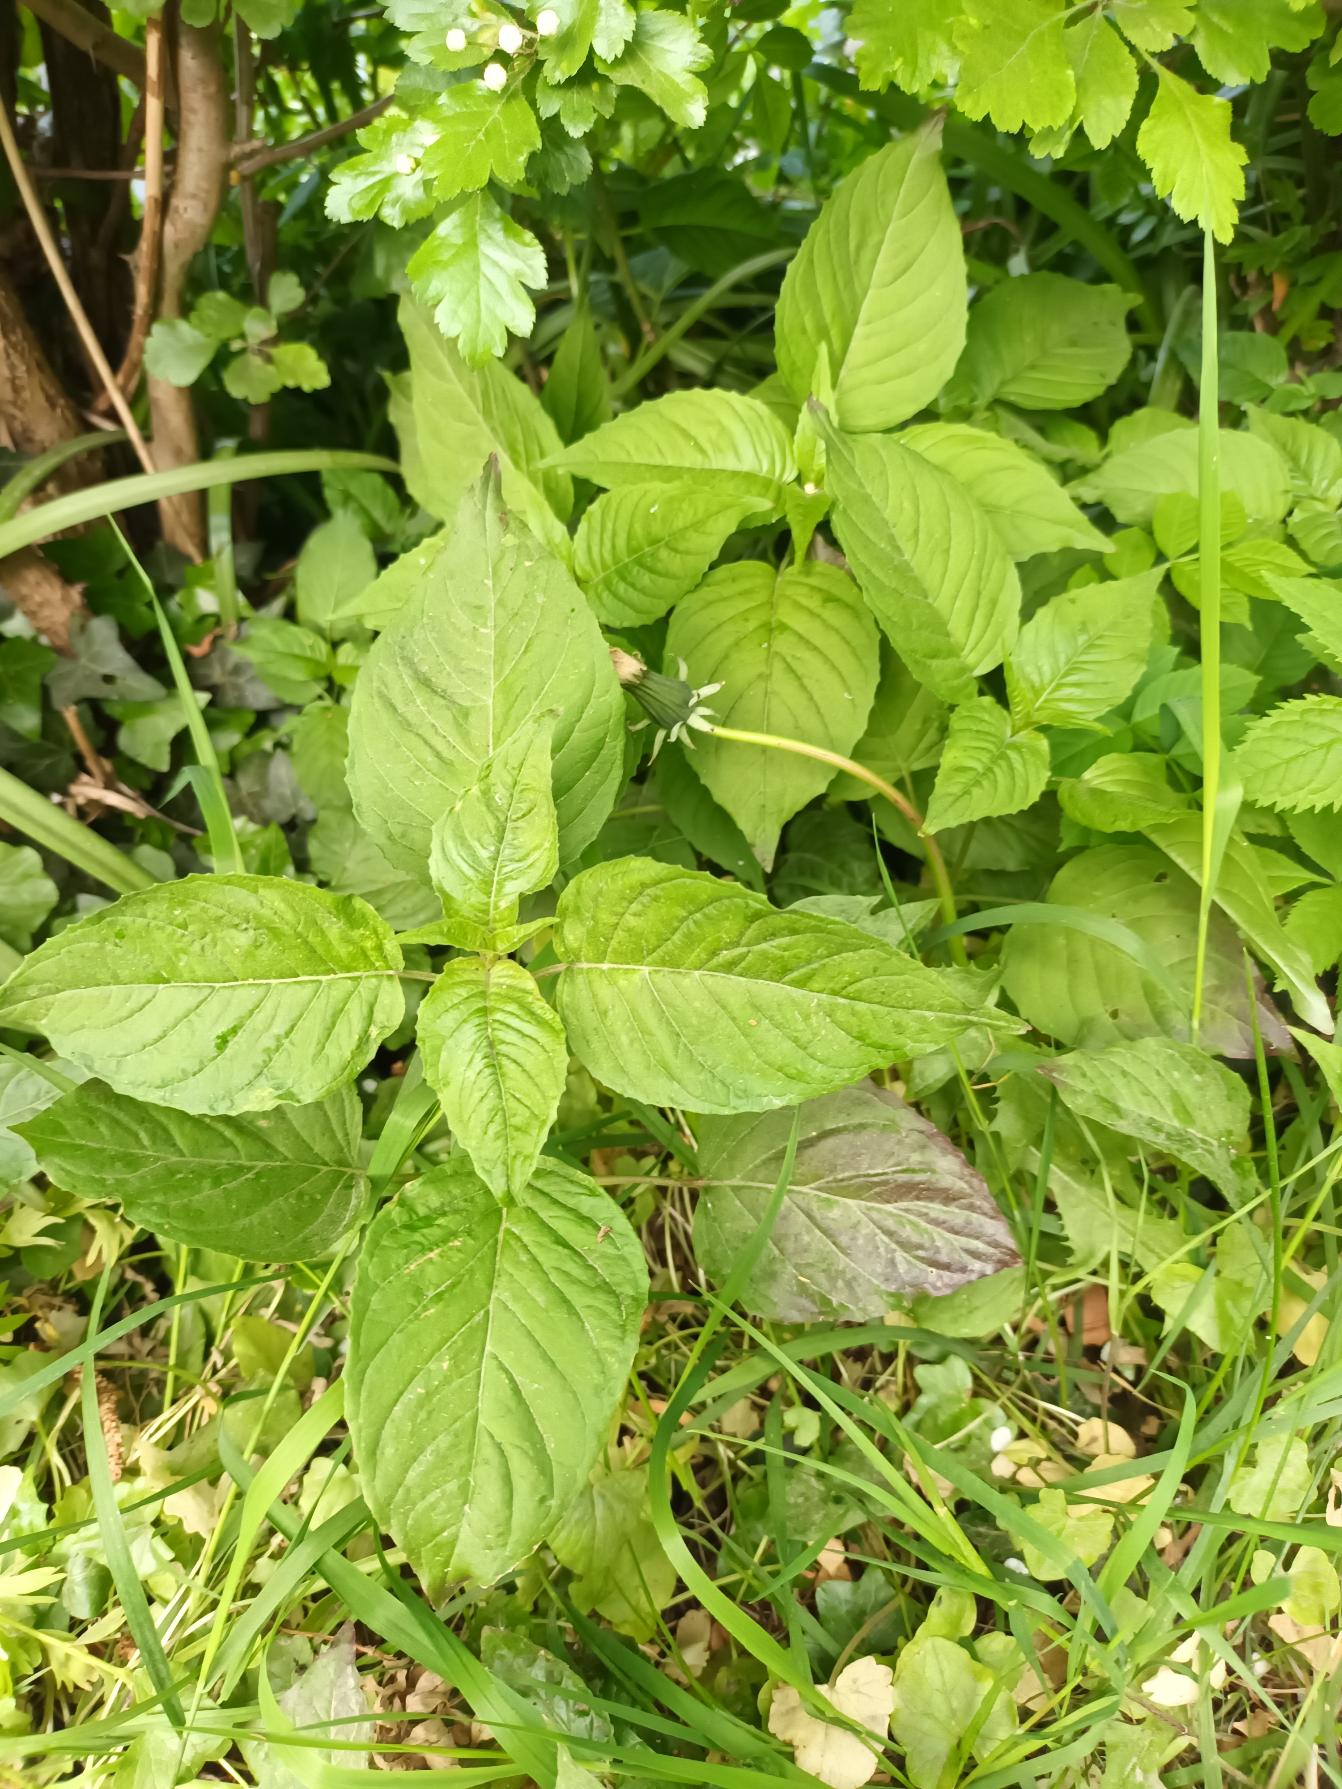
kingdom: Plantae
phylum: Tracheophyta
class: Magnoliopsida
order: Myrtales
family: Onagraceae
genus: Circaea
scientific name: Circaea lutetiana
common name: Dunet steffensurt
